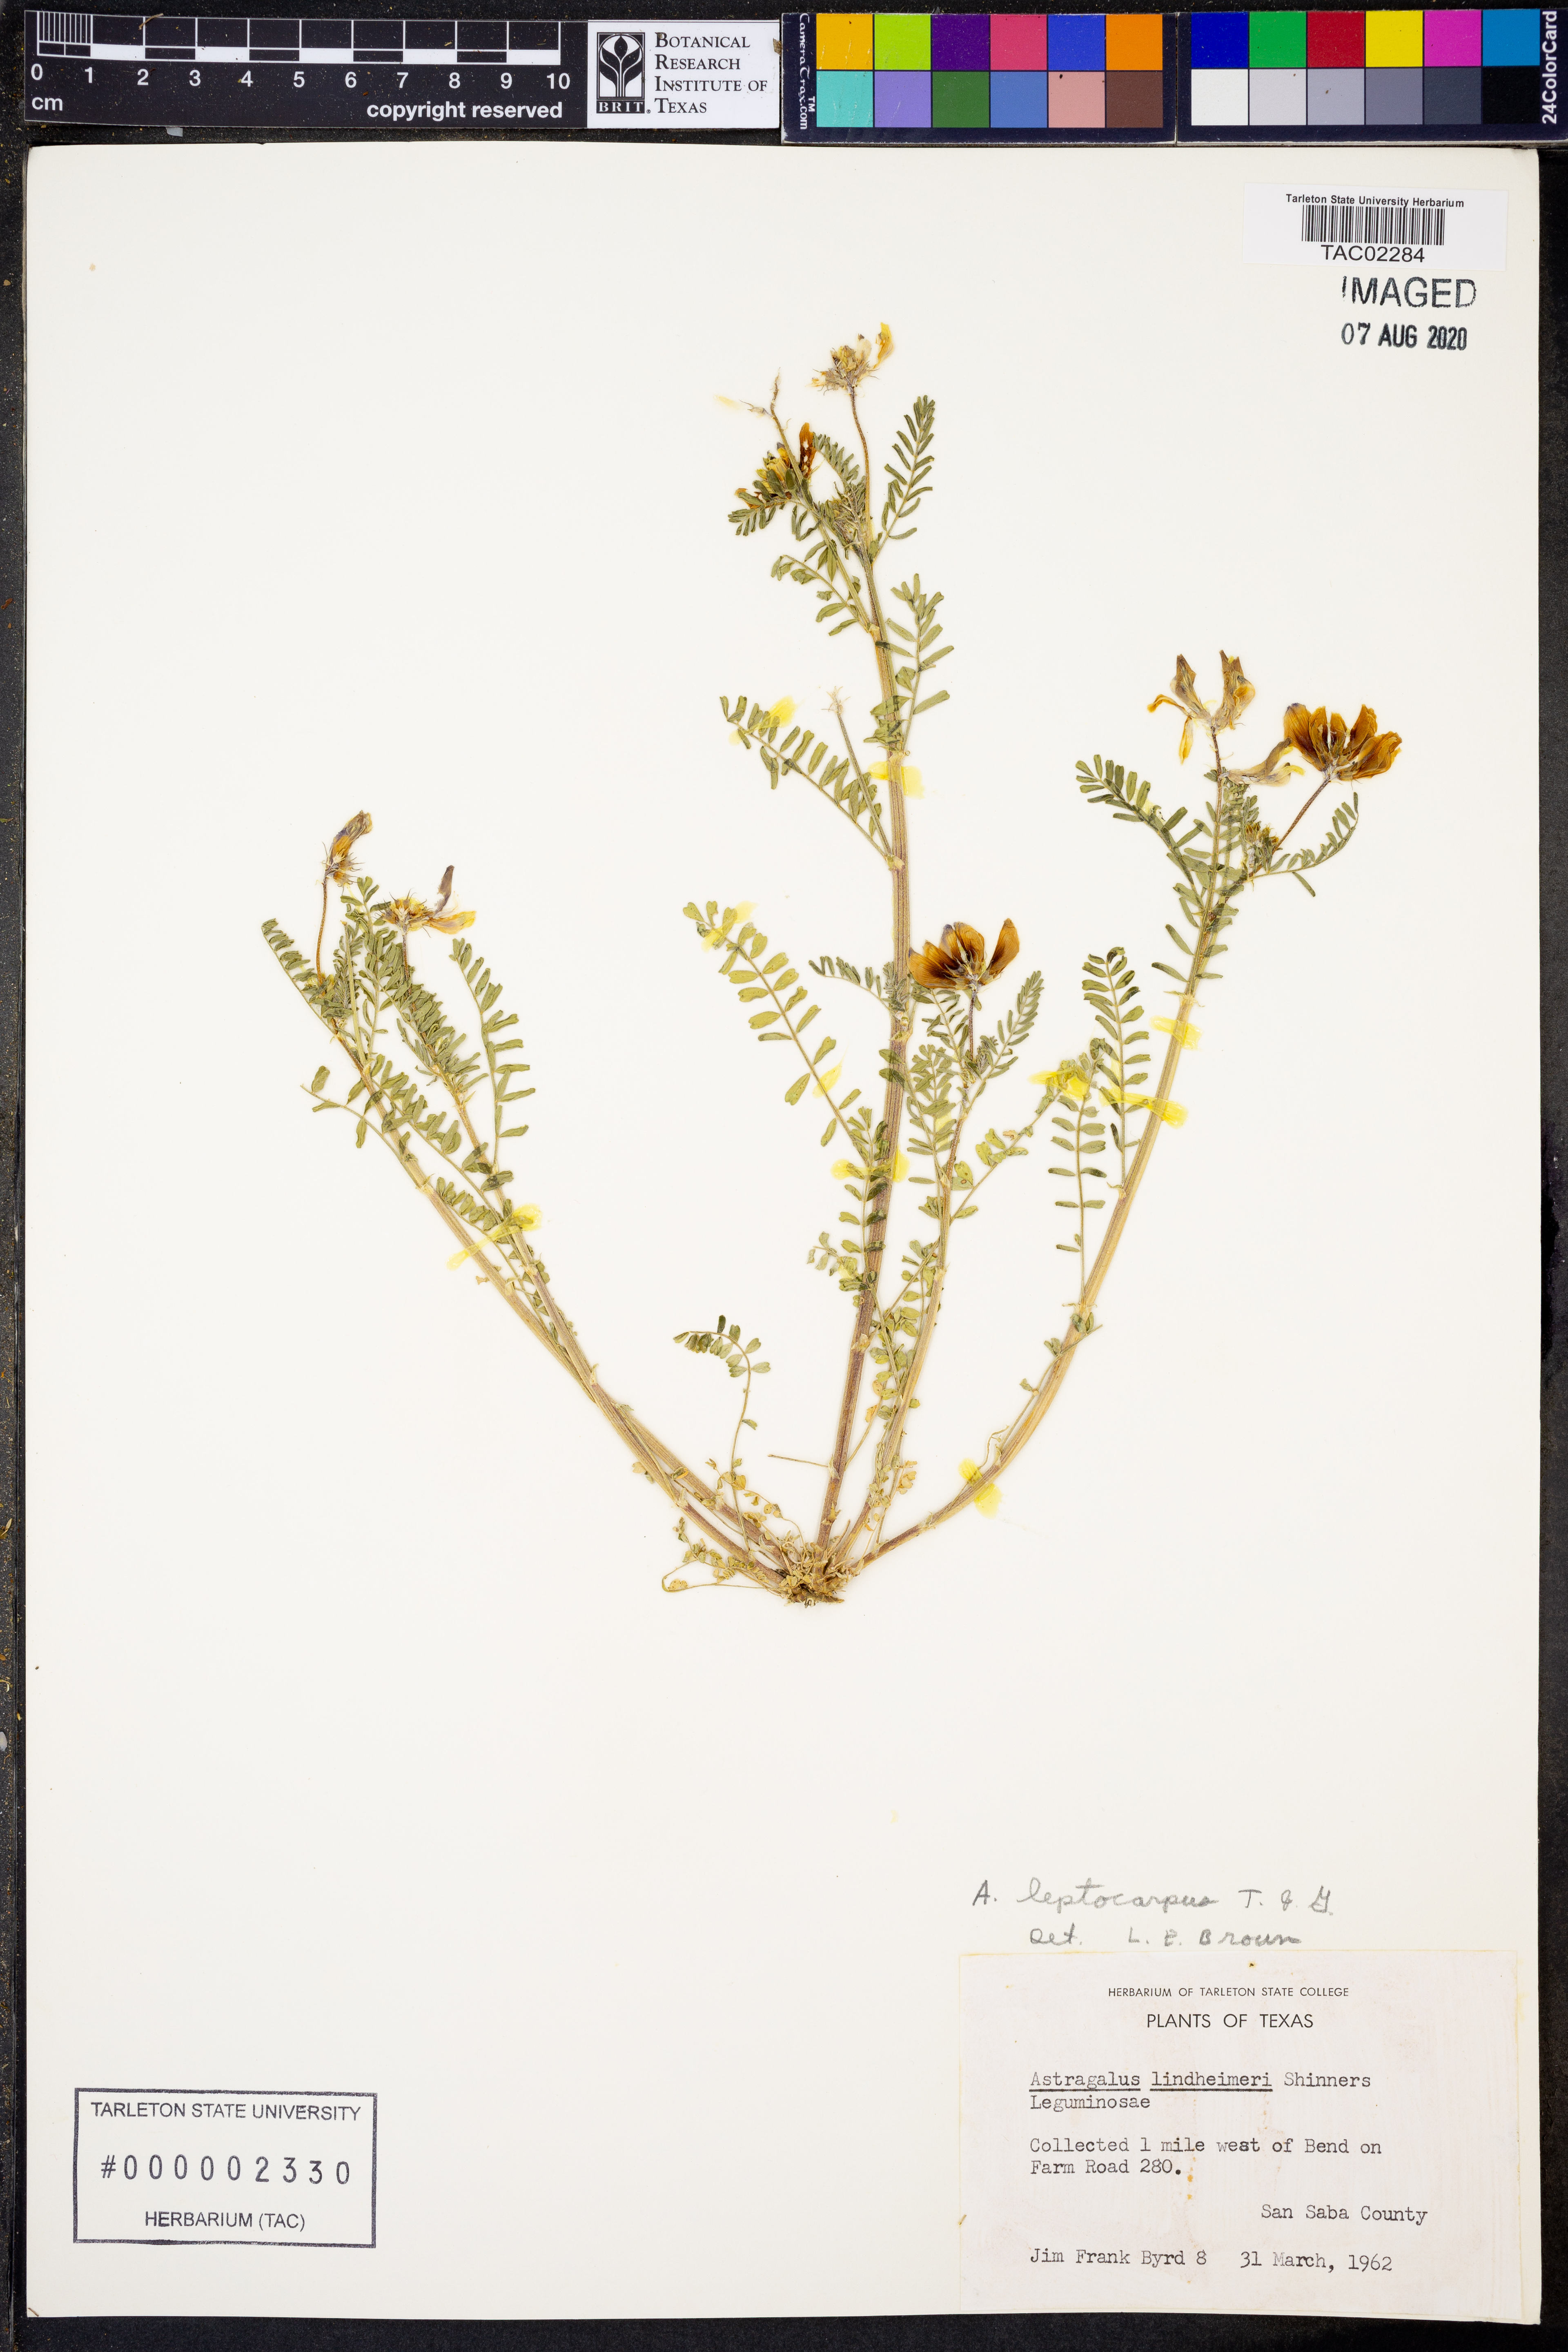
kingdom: Plantae
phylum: Tracheophyta
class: Magnoliopsida
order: Fabales
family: Fabaceae
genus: Astragalus
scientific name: Astragalus leptocarpus
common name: Bodkin milk-vetch
